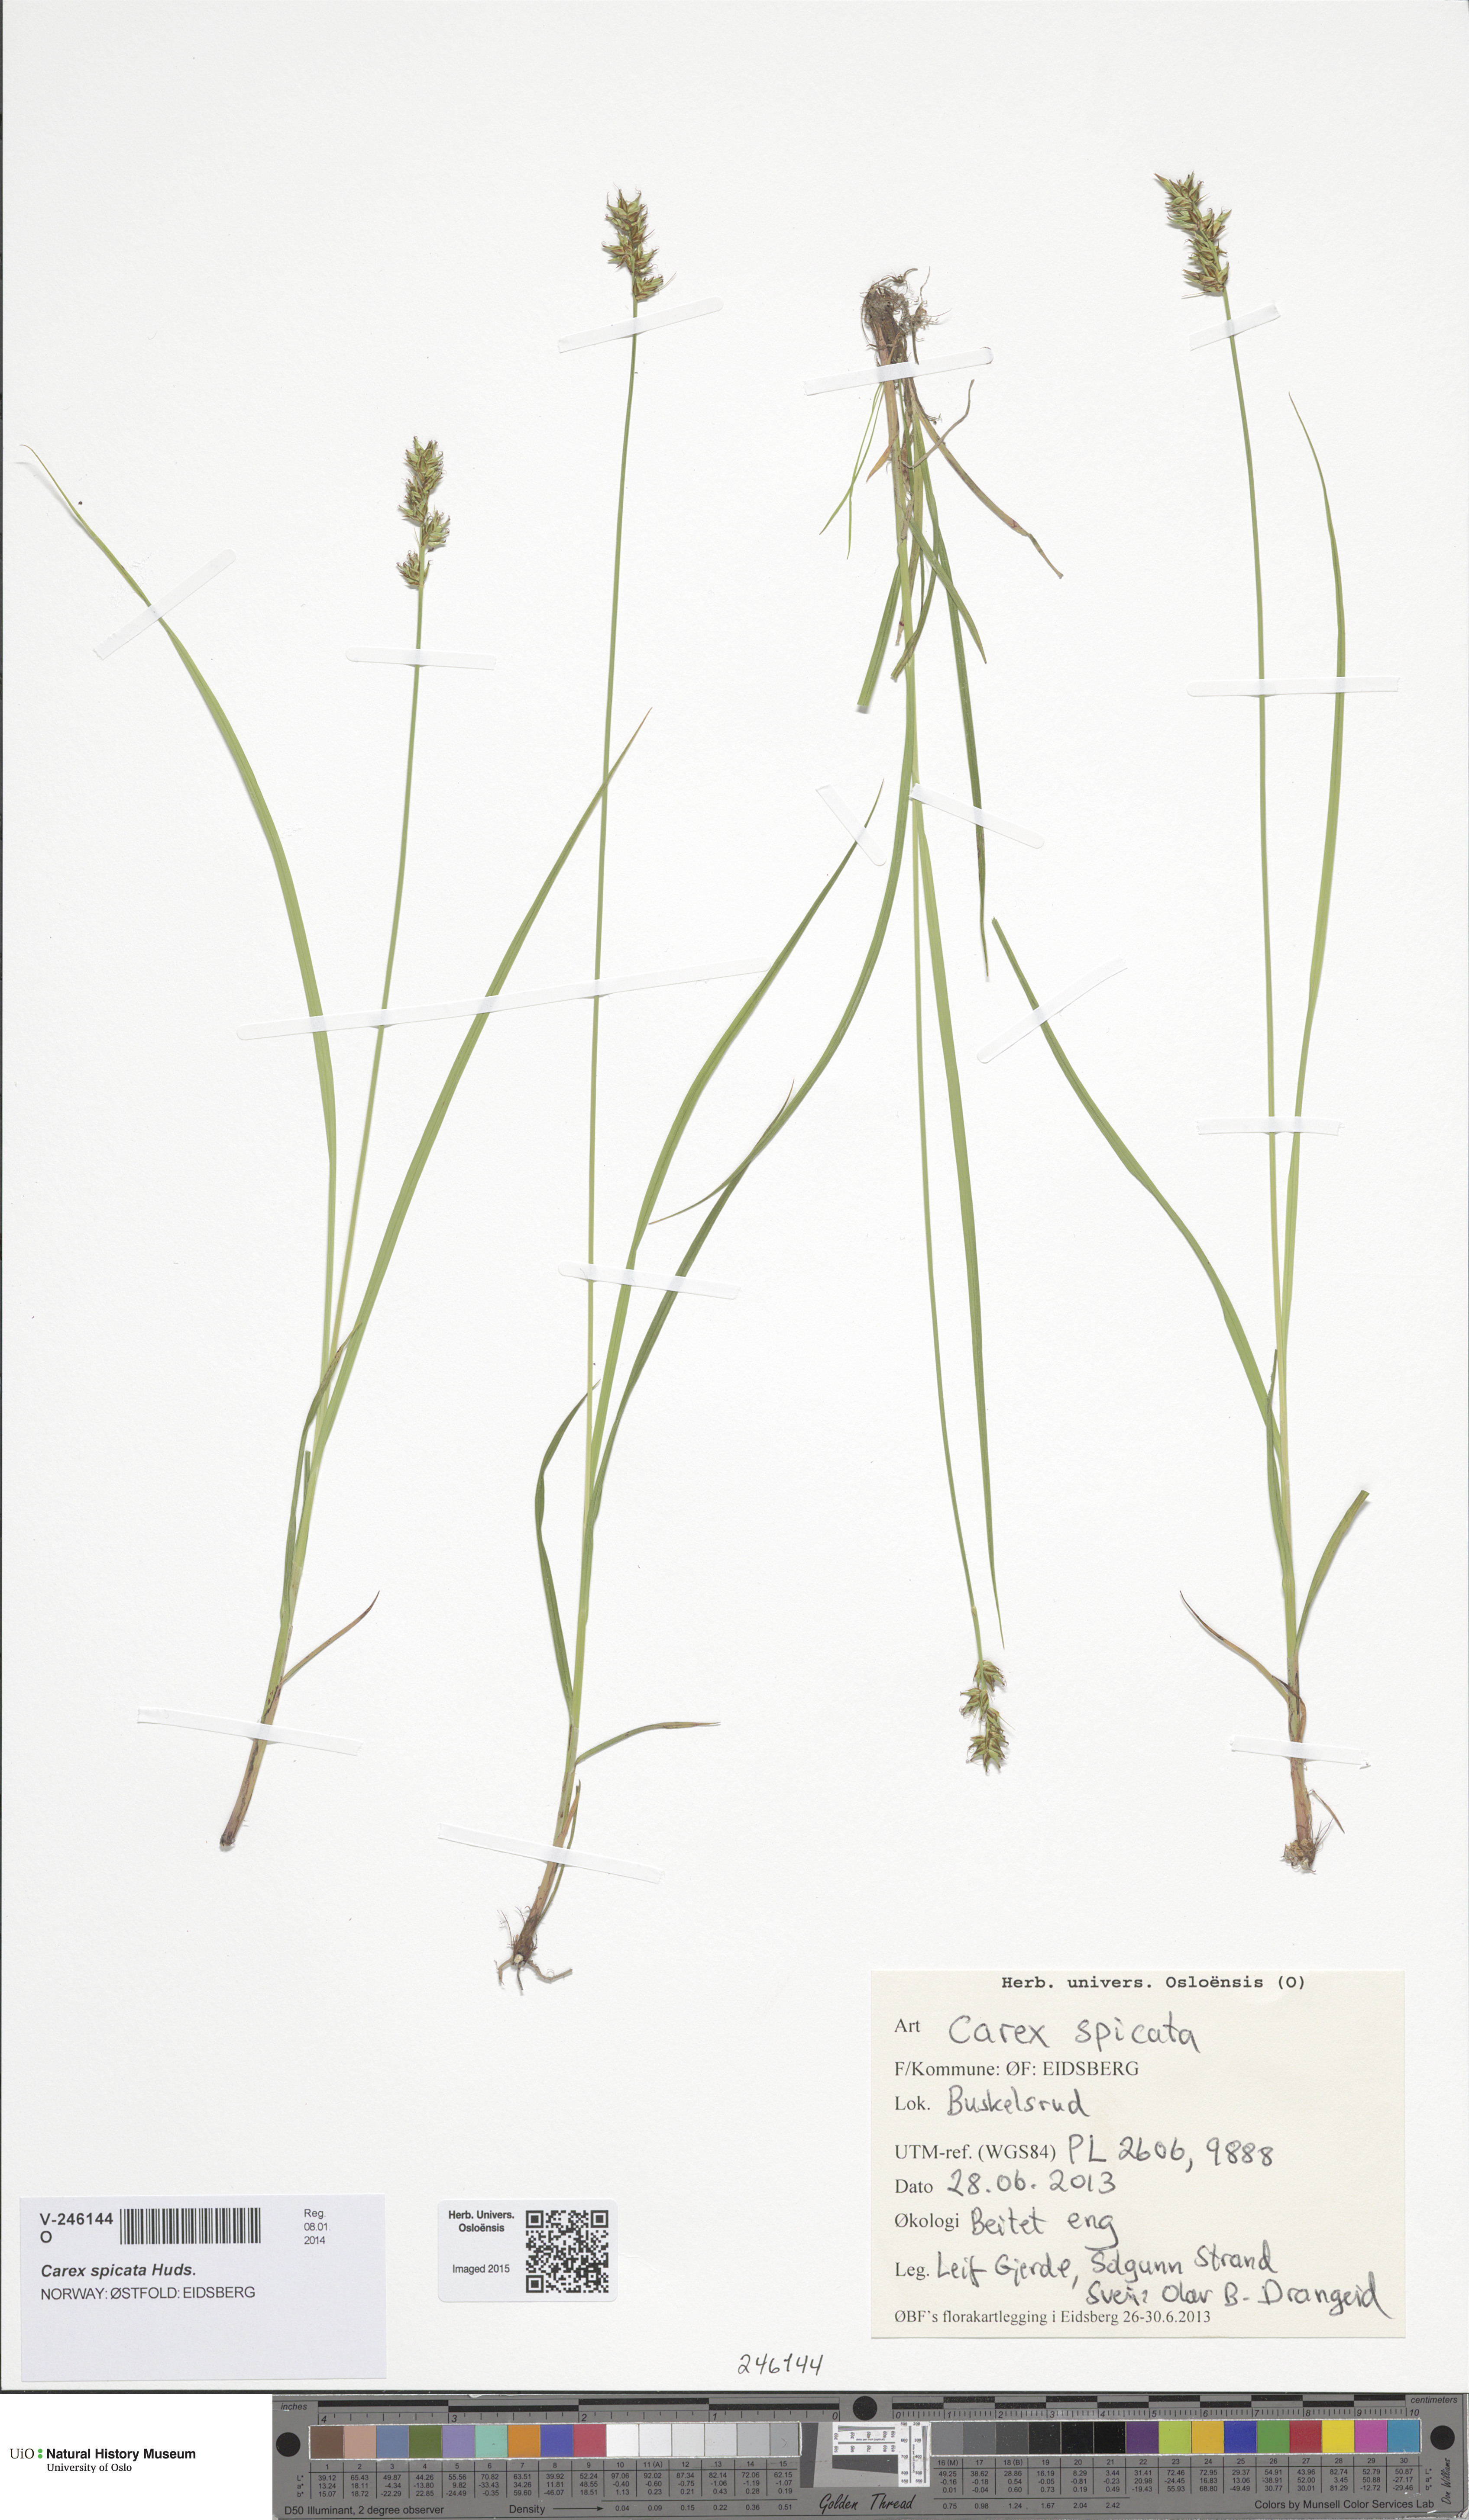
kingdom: Plantae
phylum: Tracheophyta
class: Liliopsida
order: Poales
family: Cyperaceae
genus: Carex
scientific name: Carex spicata
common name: Spiked sedge
